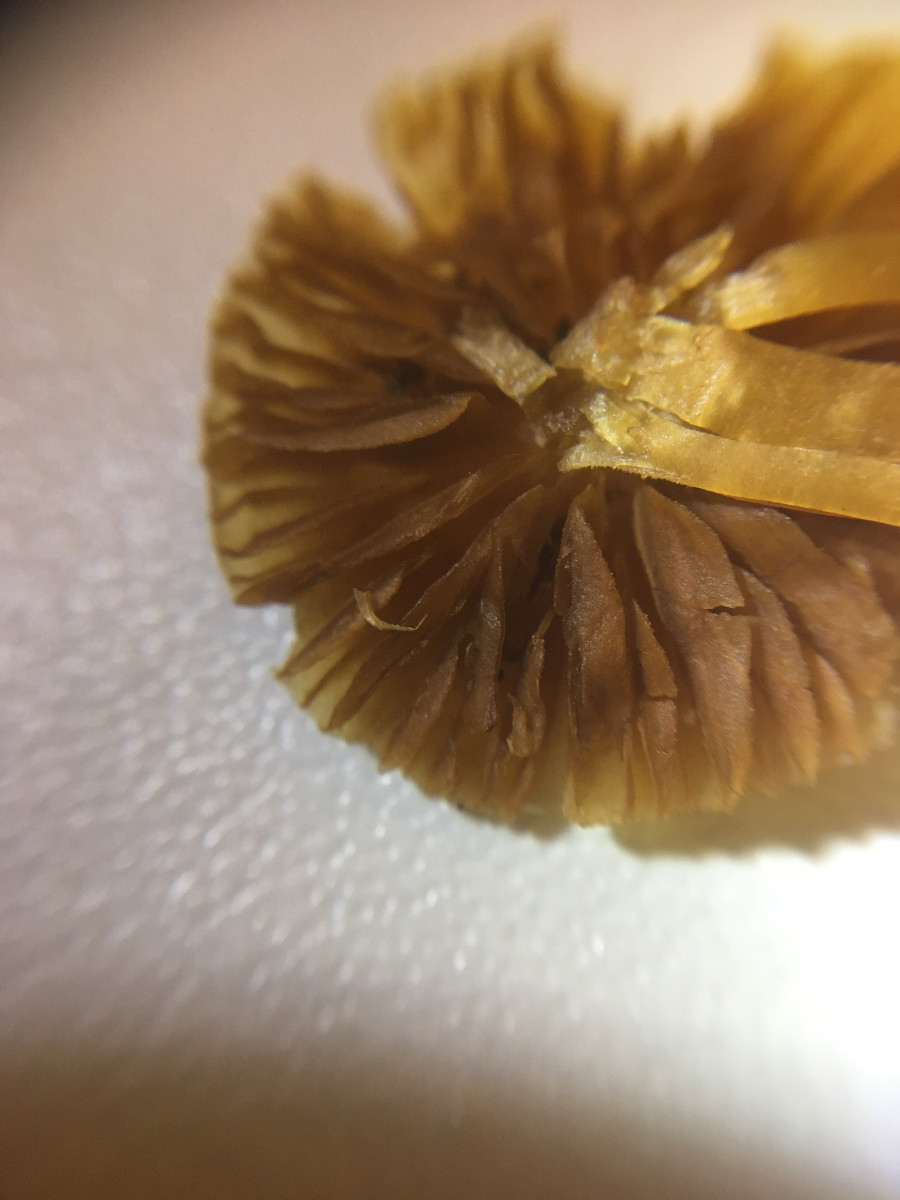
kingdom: Fungi
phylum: Basidiomycota
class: Agaricomycetes
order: Agaricales
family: Hymenogastraceae
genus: Galerina
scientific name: Galerina
